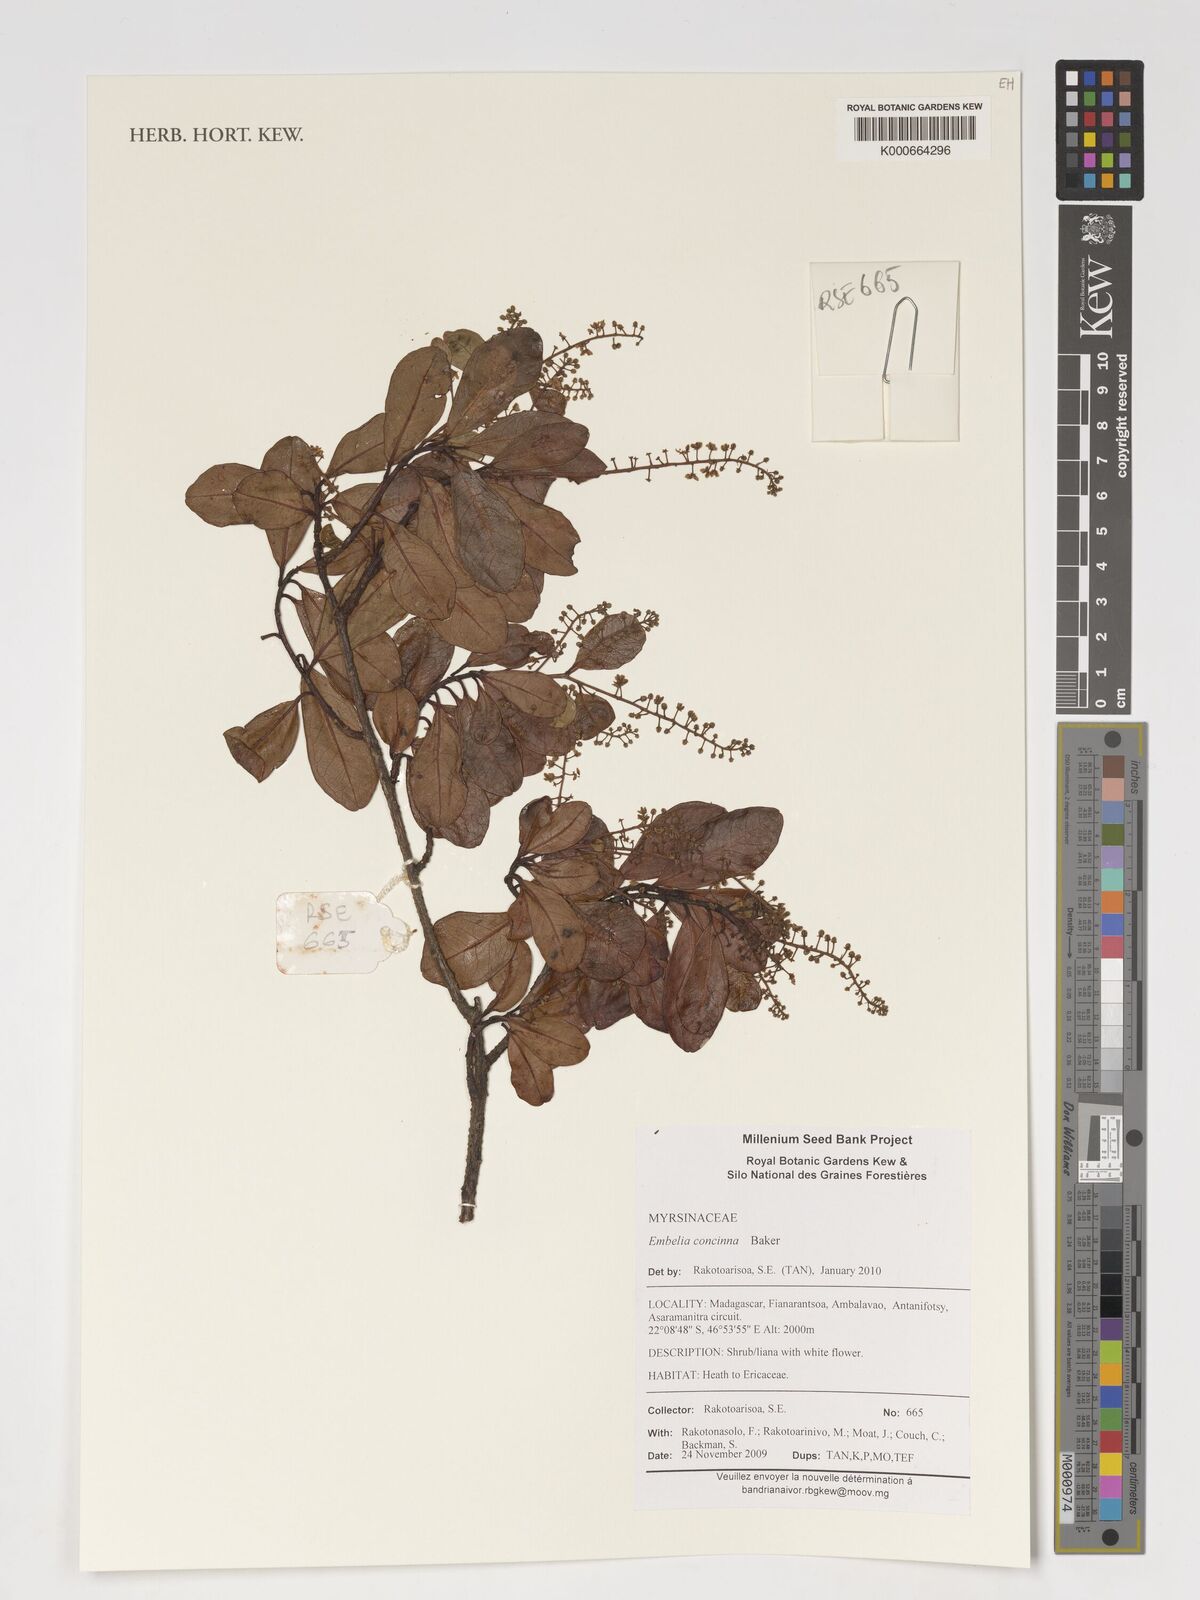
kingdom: Plantae
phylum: Tracheophyta
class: Magnoliopsida
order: Ericales
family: Primulaceae
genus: Embelia
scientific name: Embelia concinna
